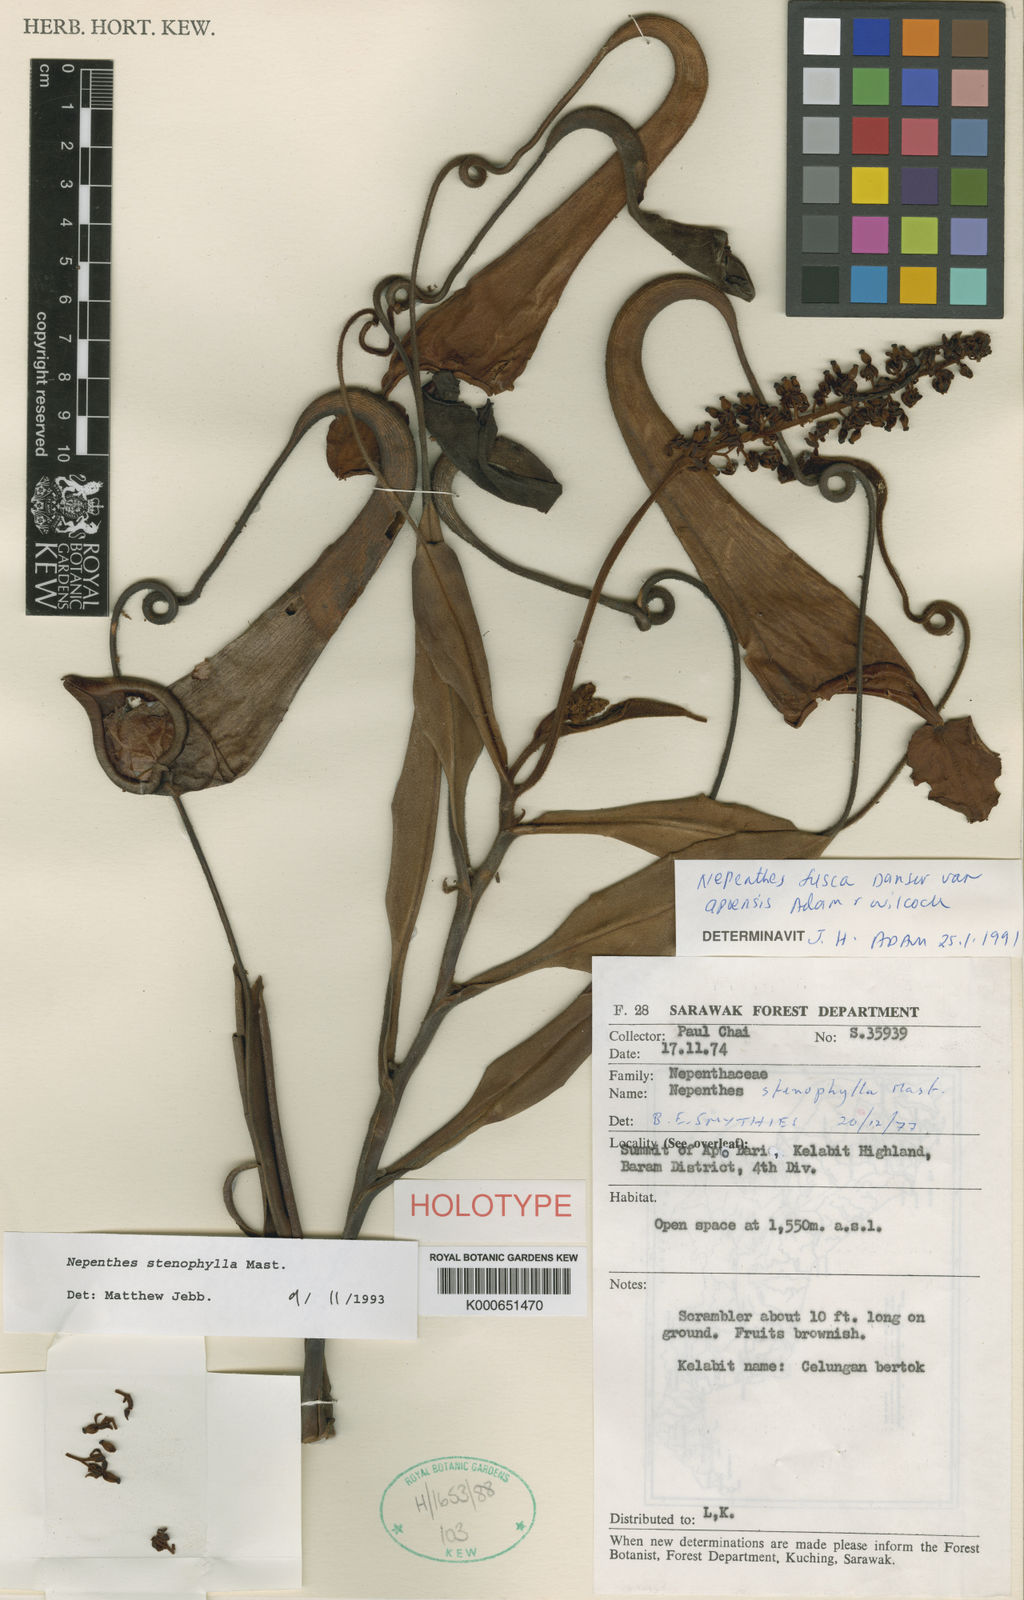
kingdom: Plantae
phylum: Tracheophyta
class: Magnoliopsida
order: Caryophyllales
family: Nepenthaceae
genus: Nepenthes
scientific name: Nepenthes stenophylla
